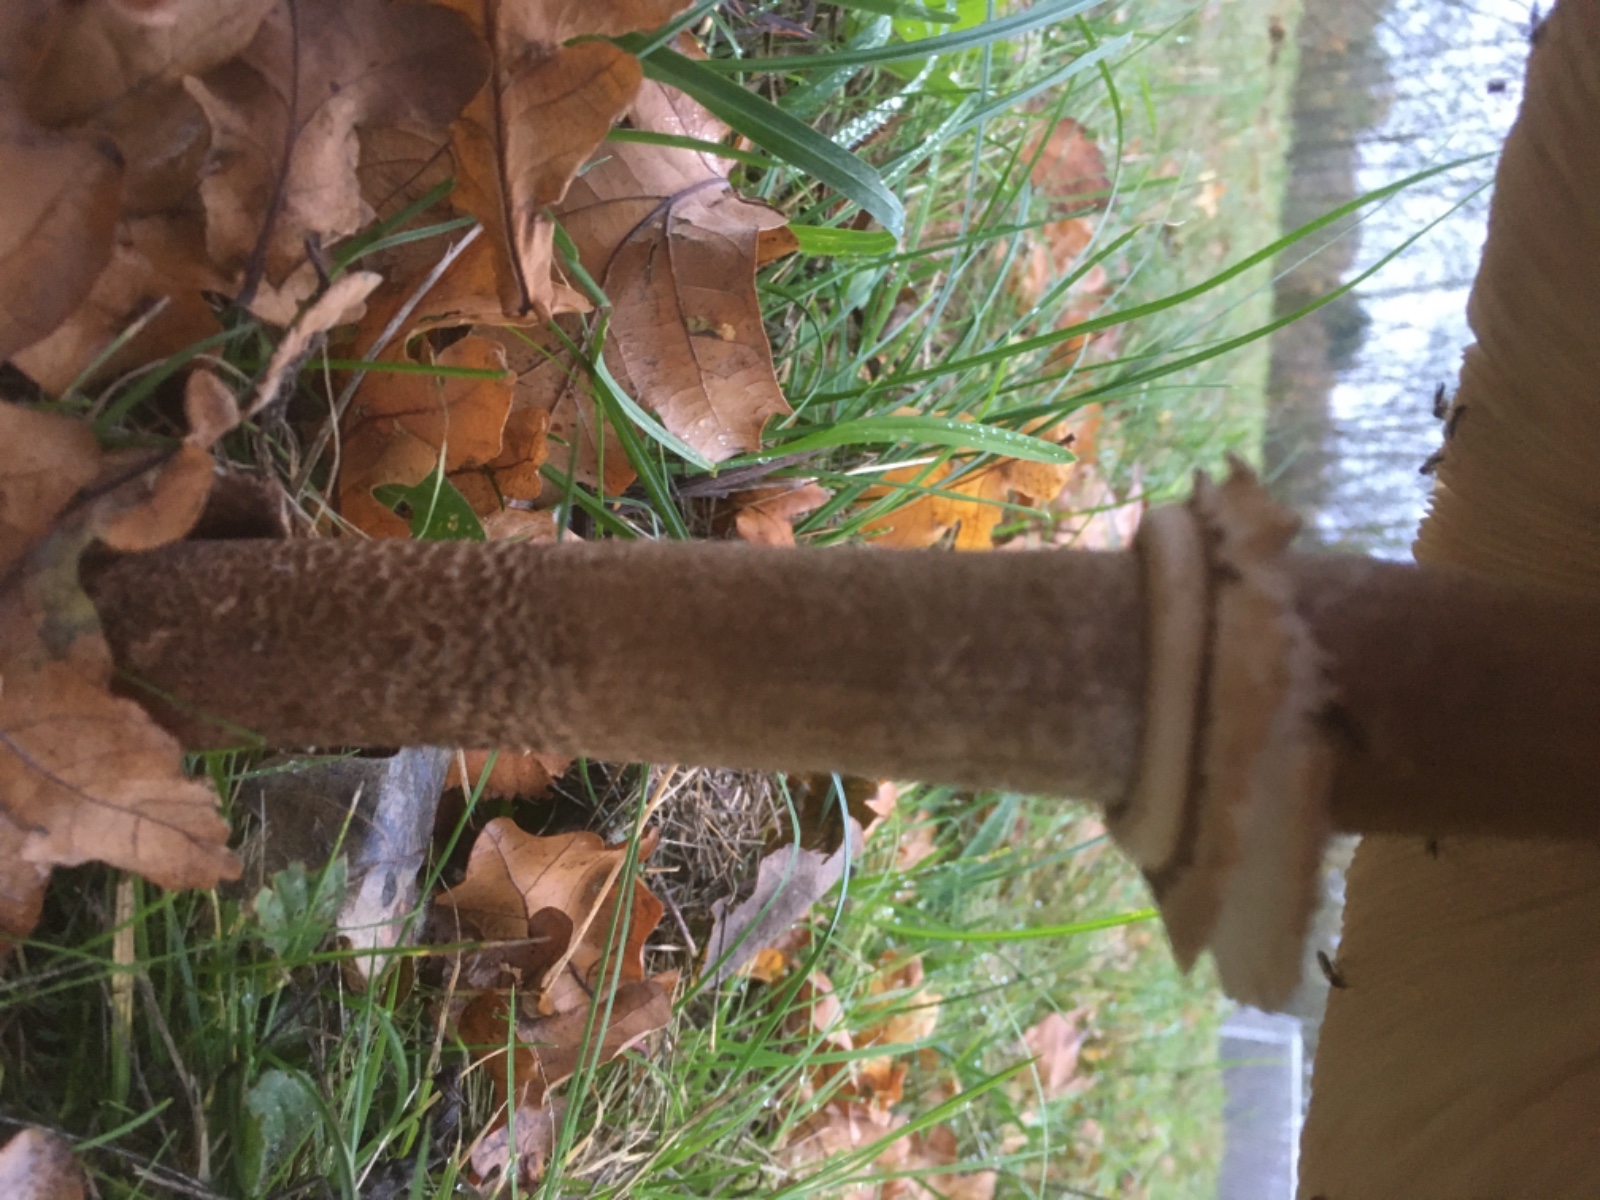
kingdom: Fungi
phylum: Basidiomycota
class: Agaricomycetes
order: Agaricales
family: Agaricaceae
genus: Macrolepiota
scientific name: Macrolepiota procera
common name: stor kæmpeparasolhat
